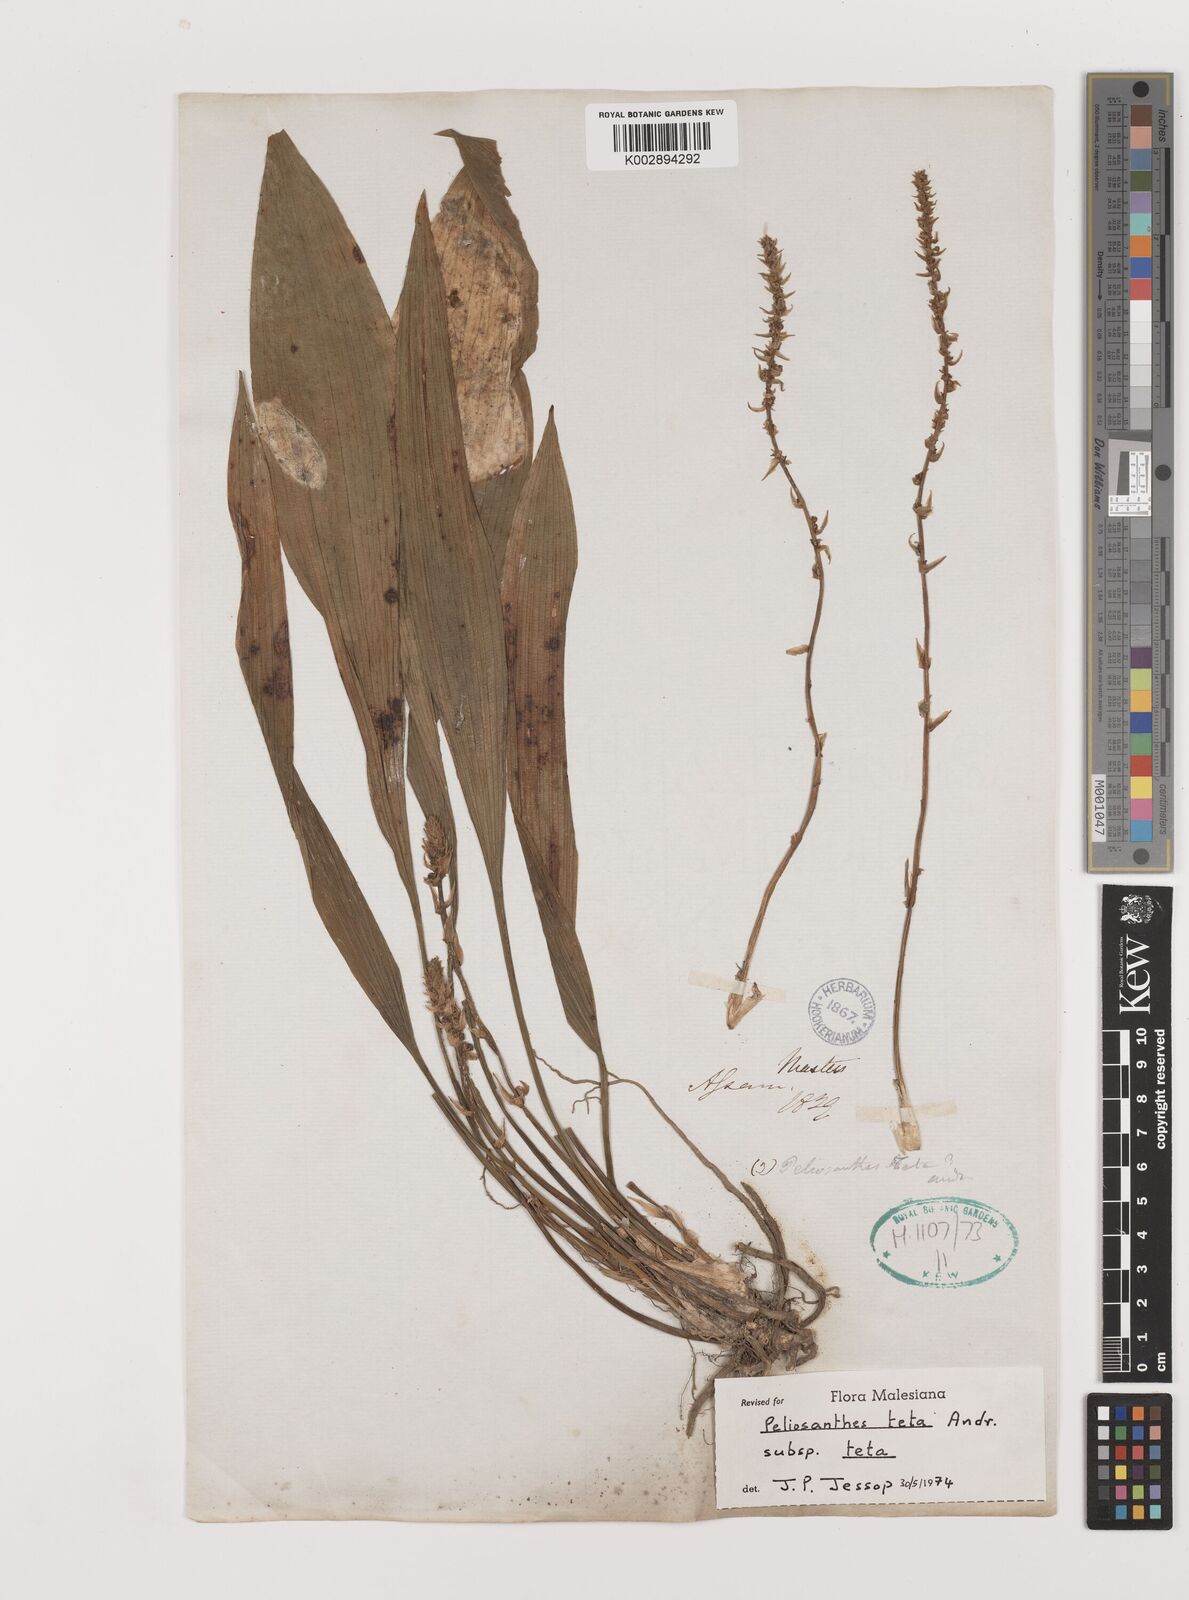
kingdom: Plantae
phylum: Tracheophyta
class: Liliopsida
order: Asparagales
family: Asparagaceae
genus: Peliosanthes
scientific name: Peliosanthes teta
